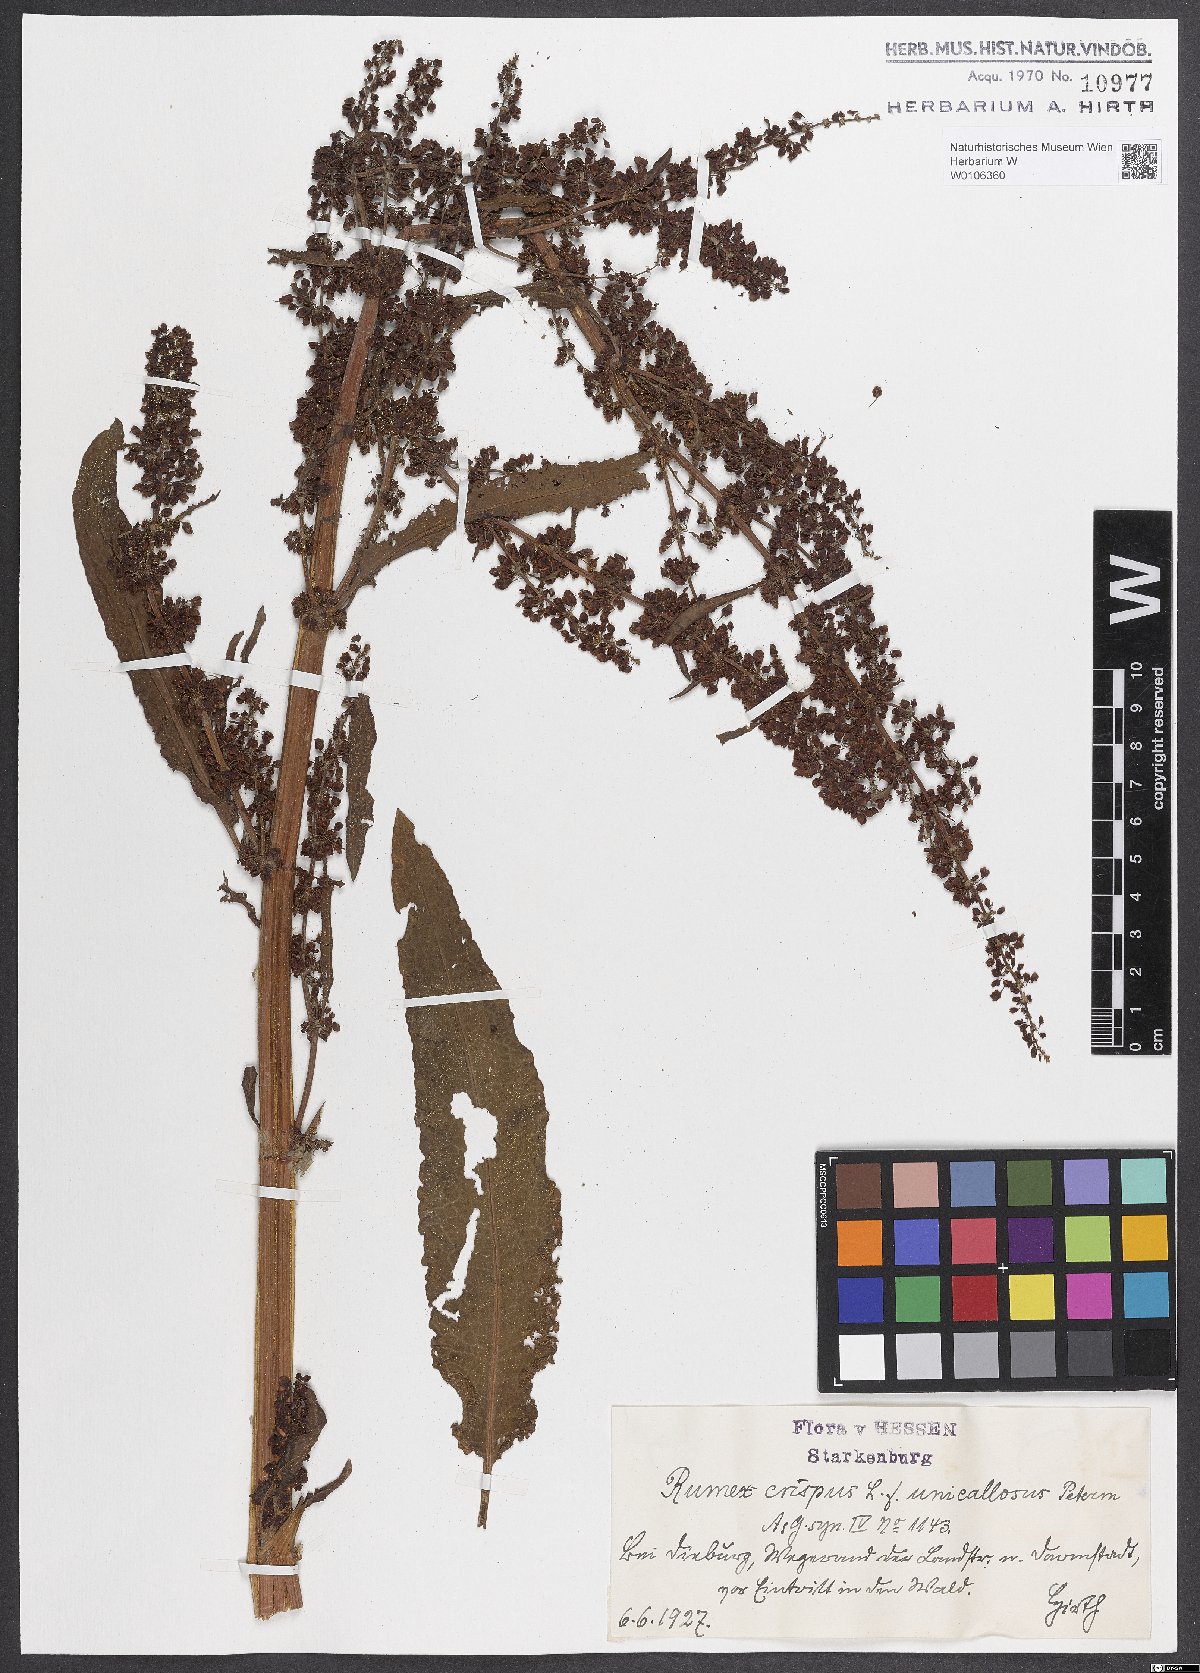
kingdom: Plantae
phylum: Tracheophyta
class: Magnoliopsida
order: Caryophyllales
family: Polygonaceae
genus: Rumex
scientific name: Rumex crispus
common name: Curled dock
